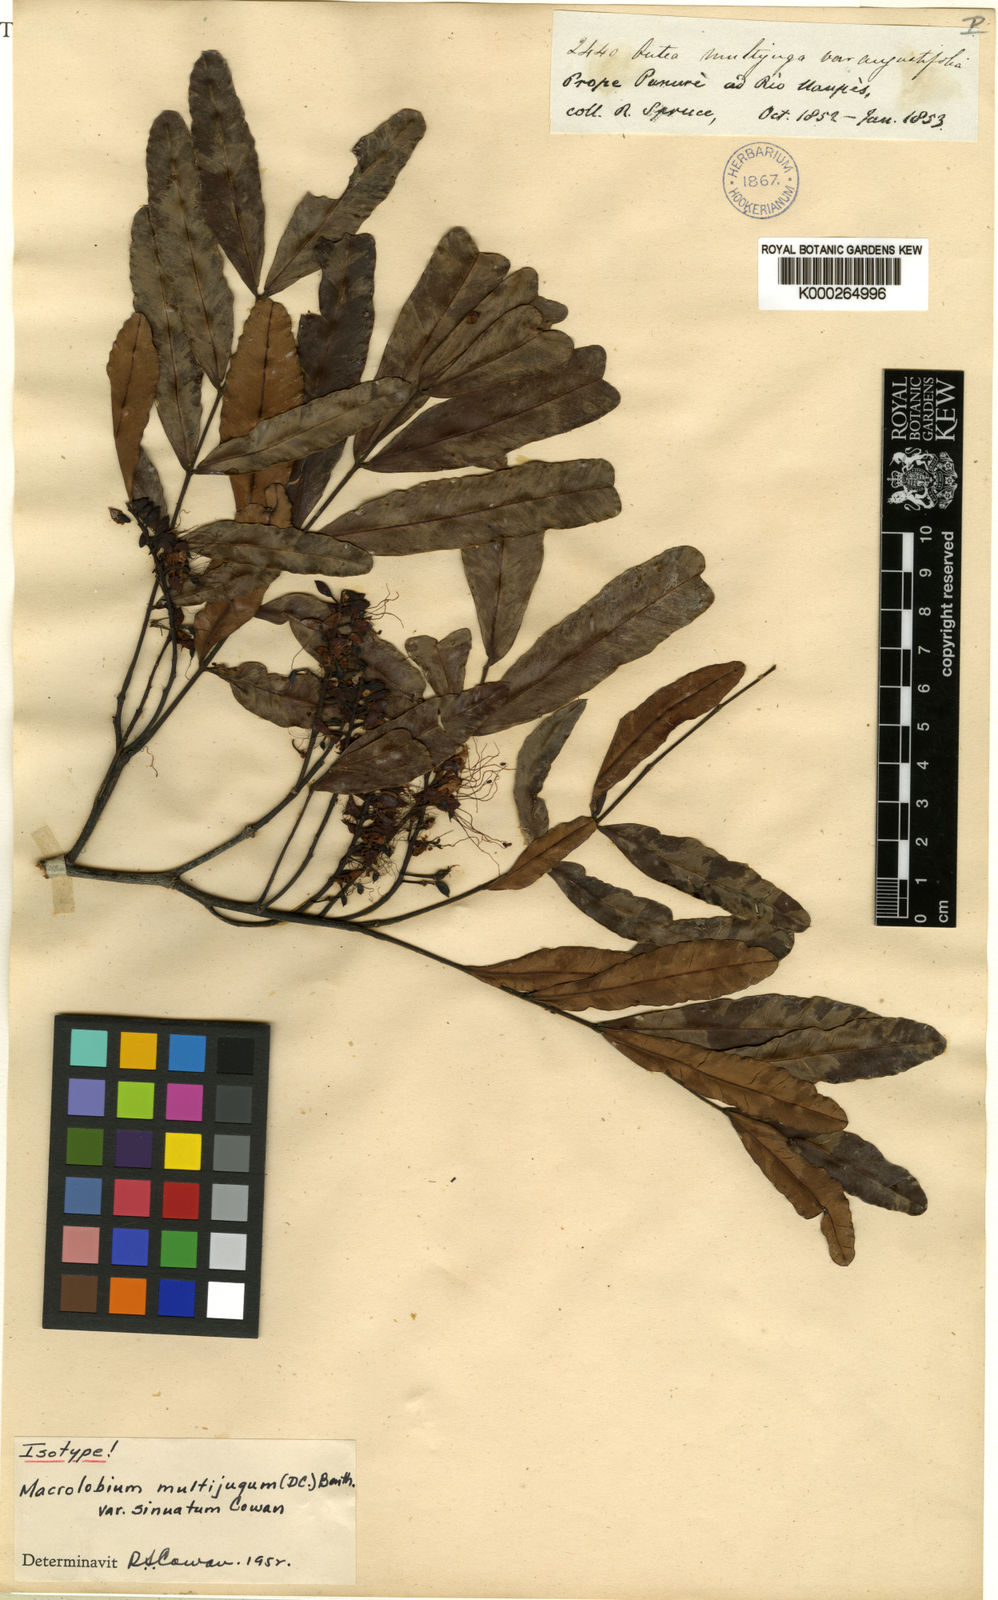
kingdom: Plantae
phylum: Tracheophyta
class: Magnoliopsida
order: Fabales
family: Fabaceae
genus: Macrolobium
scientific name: Macrolobium multijugum
